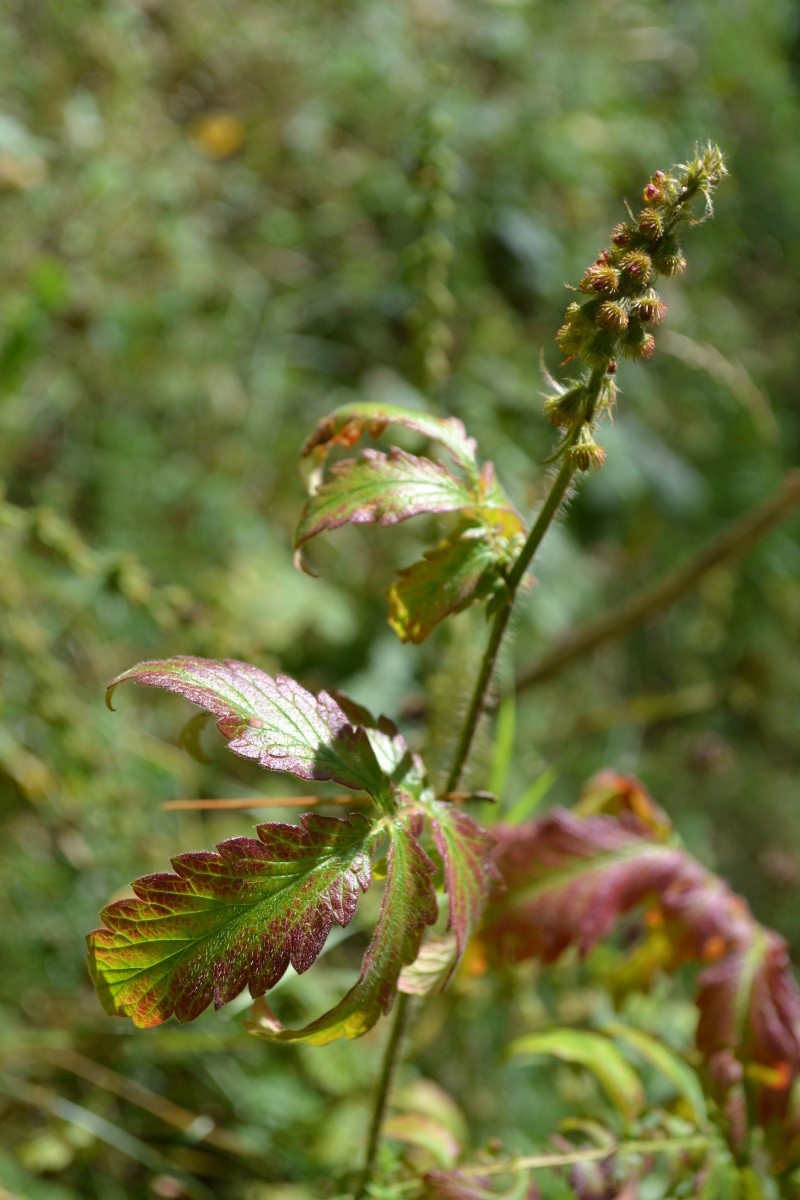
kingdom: Plantae
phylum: Tracheophyta
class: Magnoliopsida
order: Rosales
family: Rosaceae
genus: Agrimonia
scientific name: Agrimonia procera
